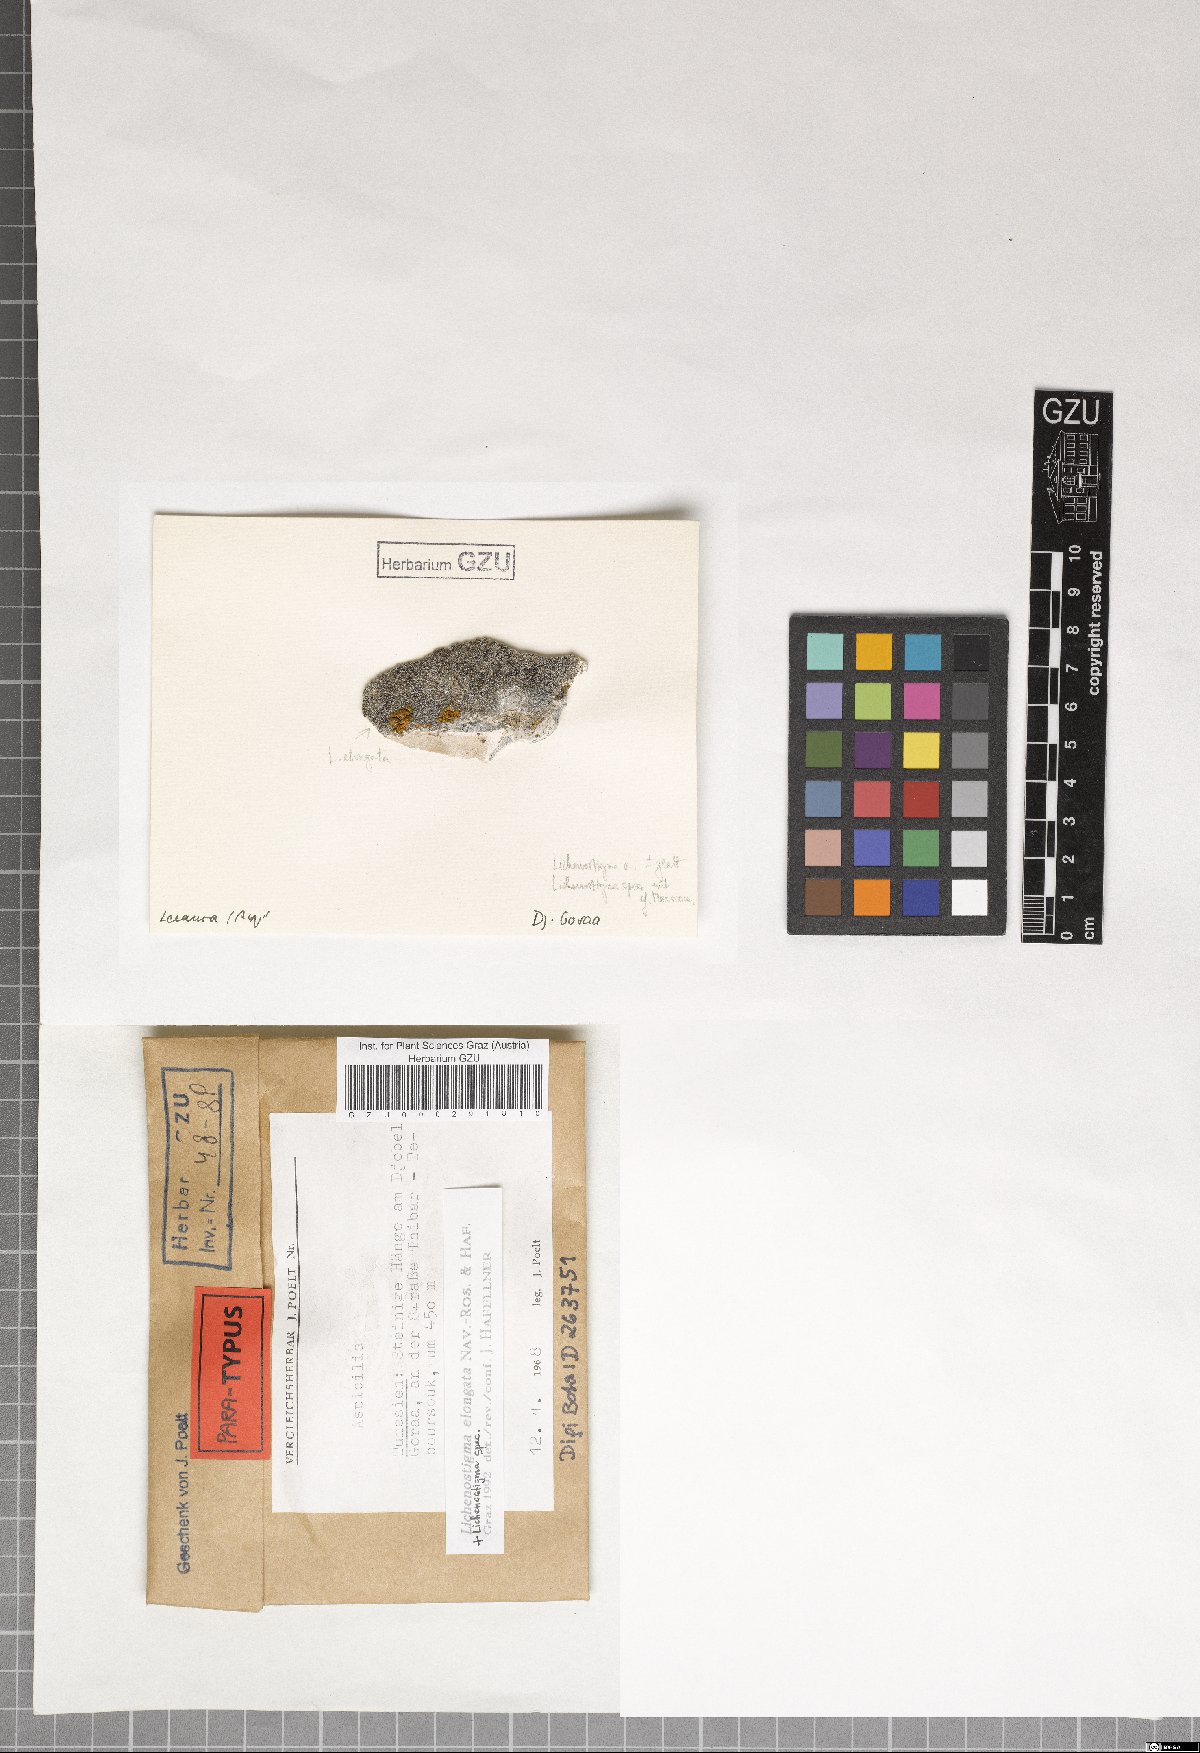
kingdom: Fungi
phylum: Ascomycota
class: Arthoniomycetes
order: Lichenostigmatales
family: Phaeococcomycetaceae
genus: Lichenostigma
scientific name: Lichenostigma elongatum
